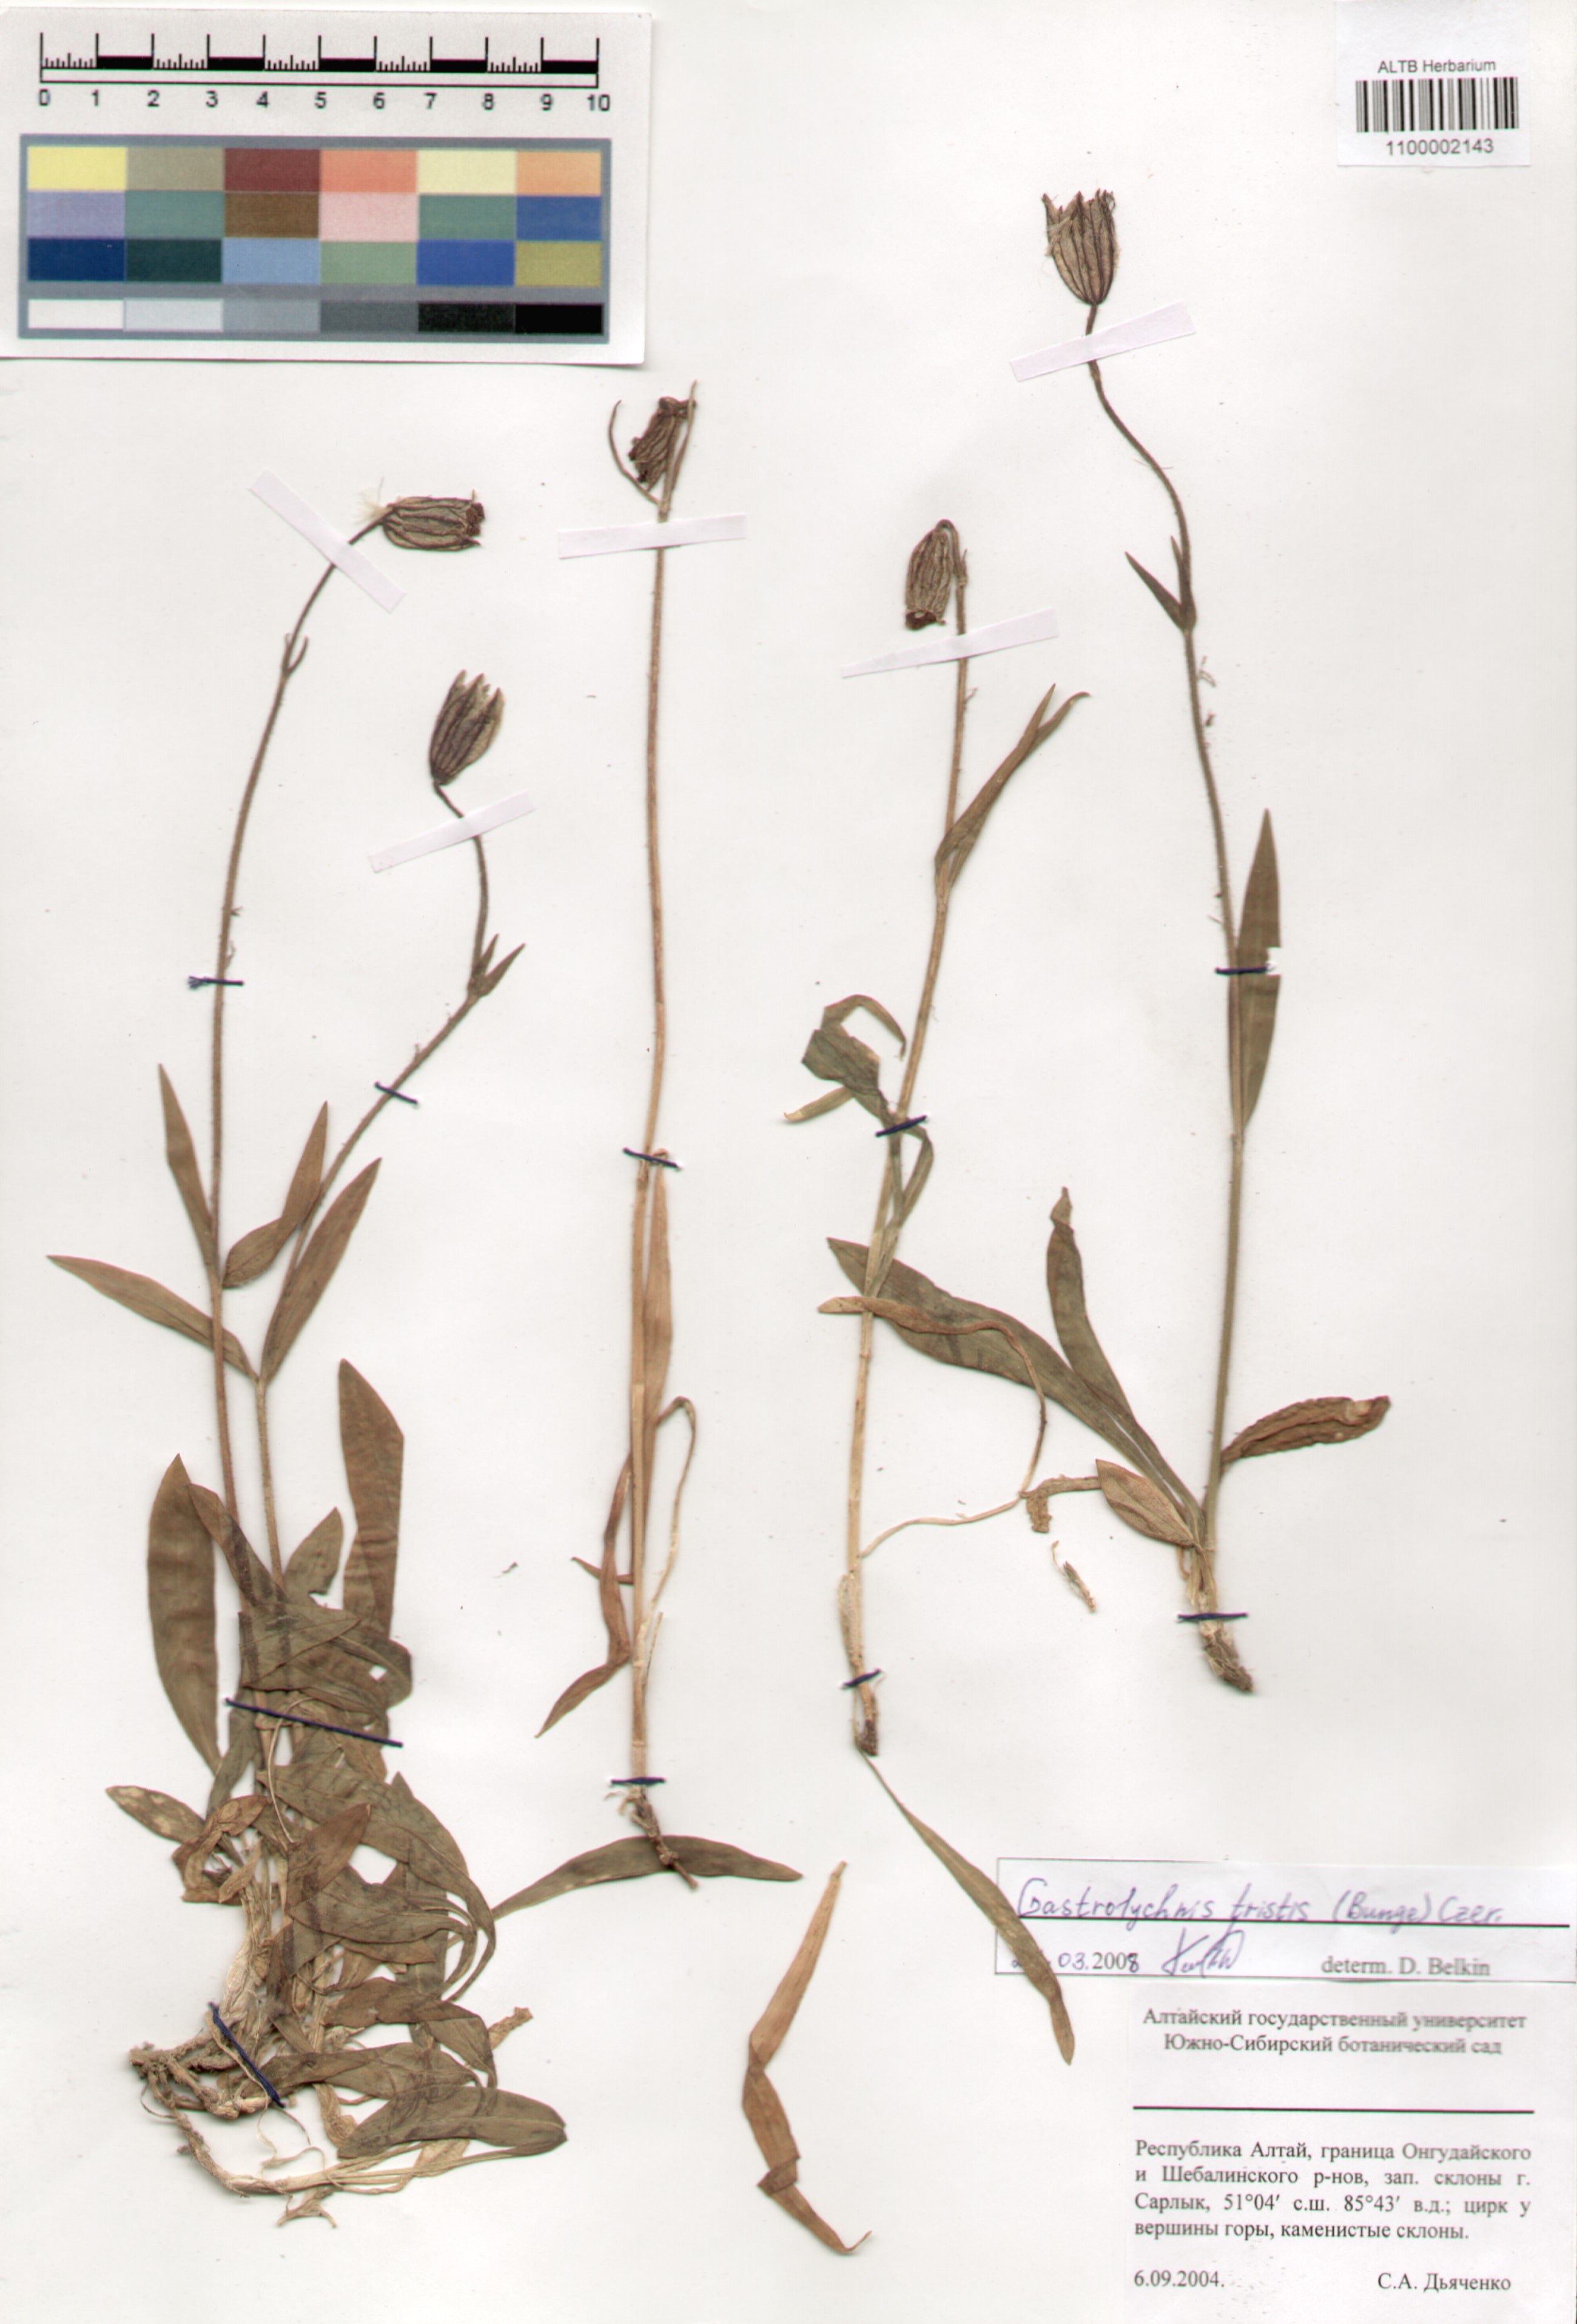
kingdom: Plantae
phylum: Tracheophyta
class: Magnoliopsida
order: Caryophyllales
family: Caryophyllaceae
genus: Silene
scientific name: Silene bungei
